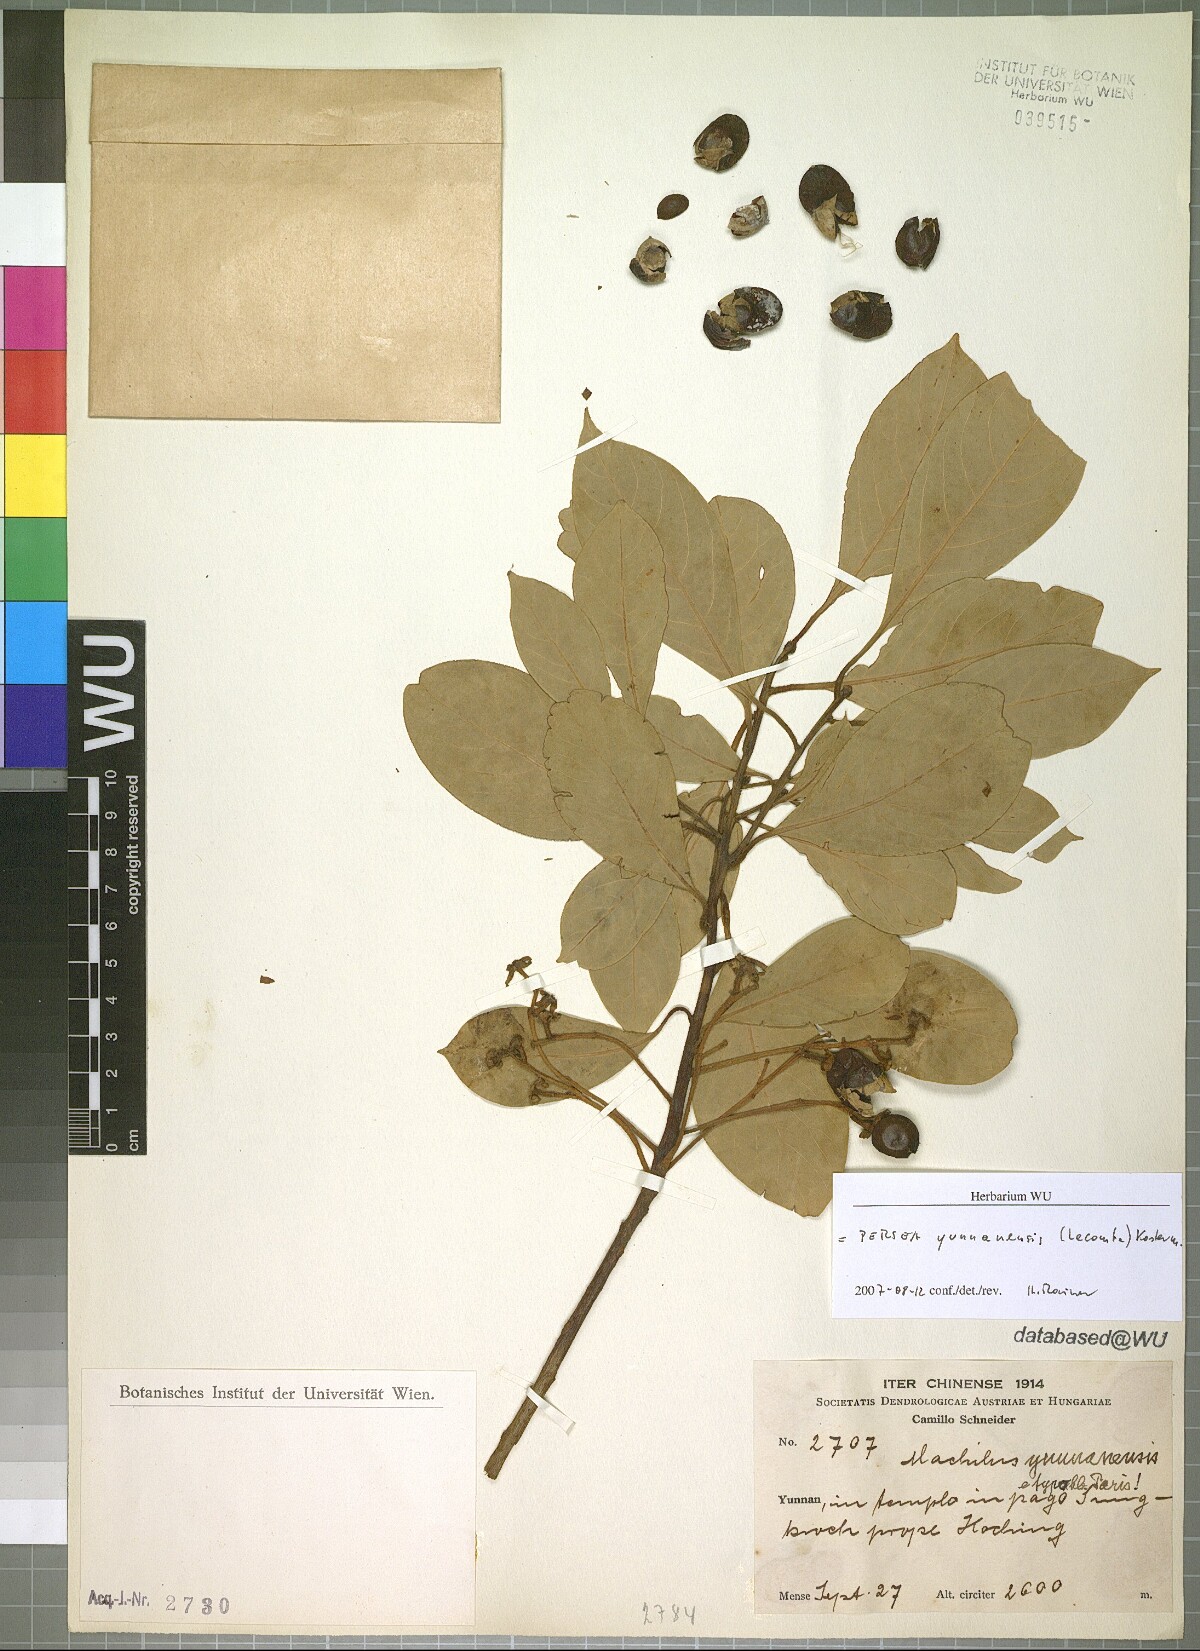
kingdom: Plantae
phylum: Tracheophyta
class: Magnoliopsida
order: Laurales
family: Lauraceae
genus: Machilus
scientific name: Machilus yunnanensis
